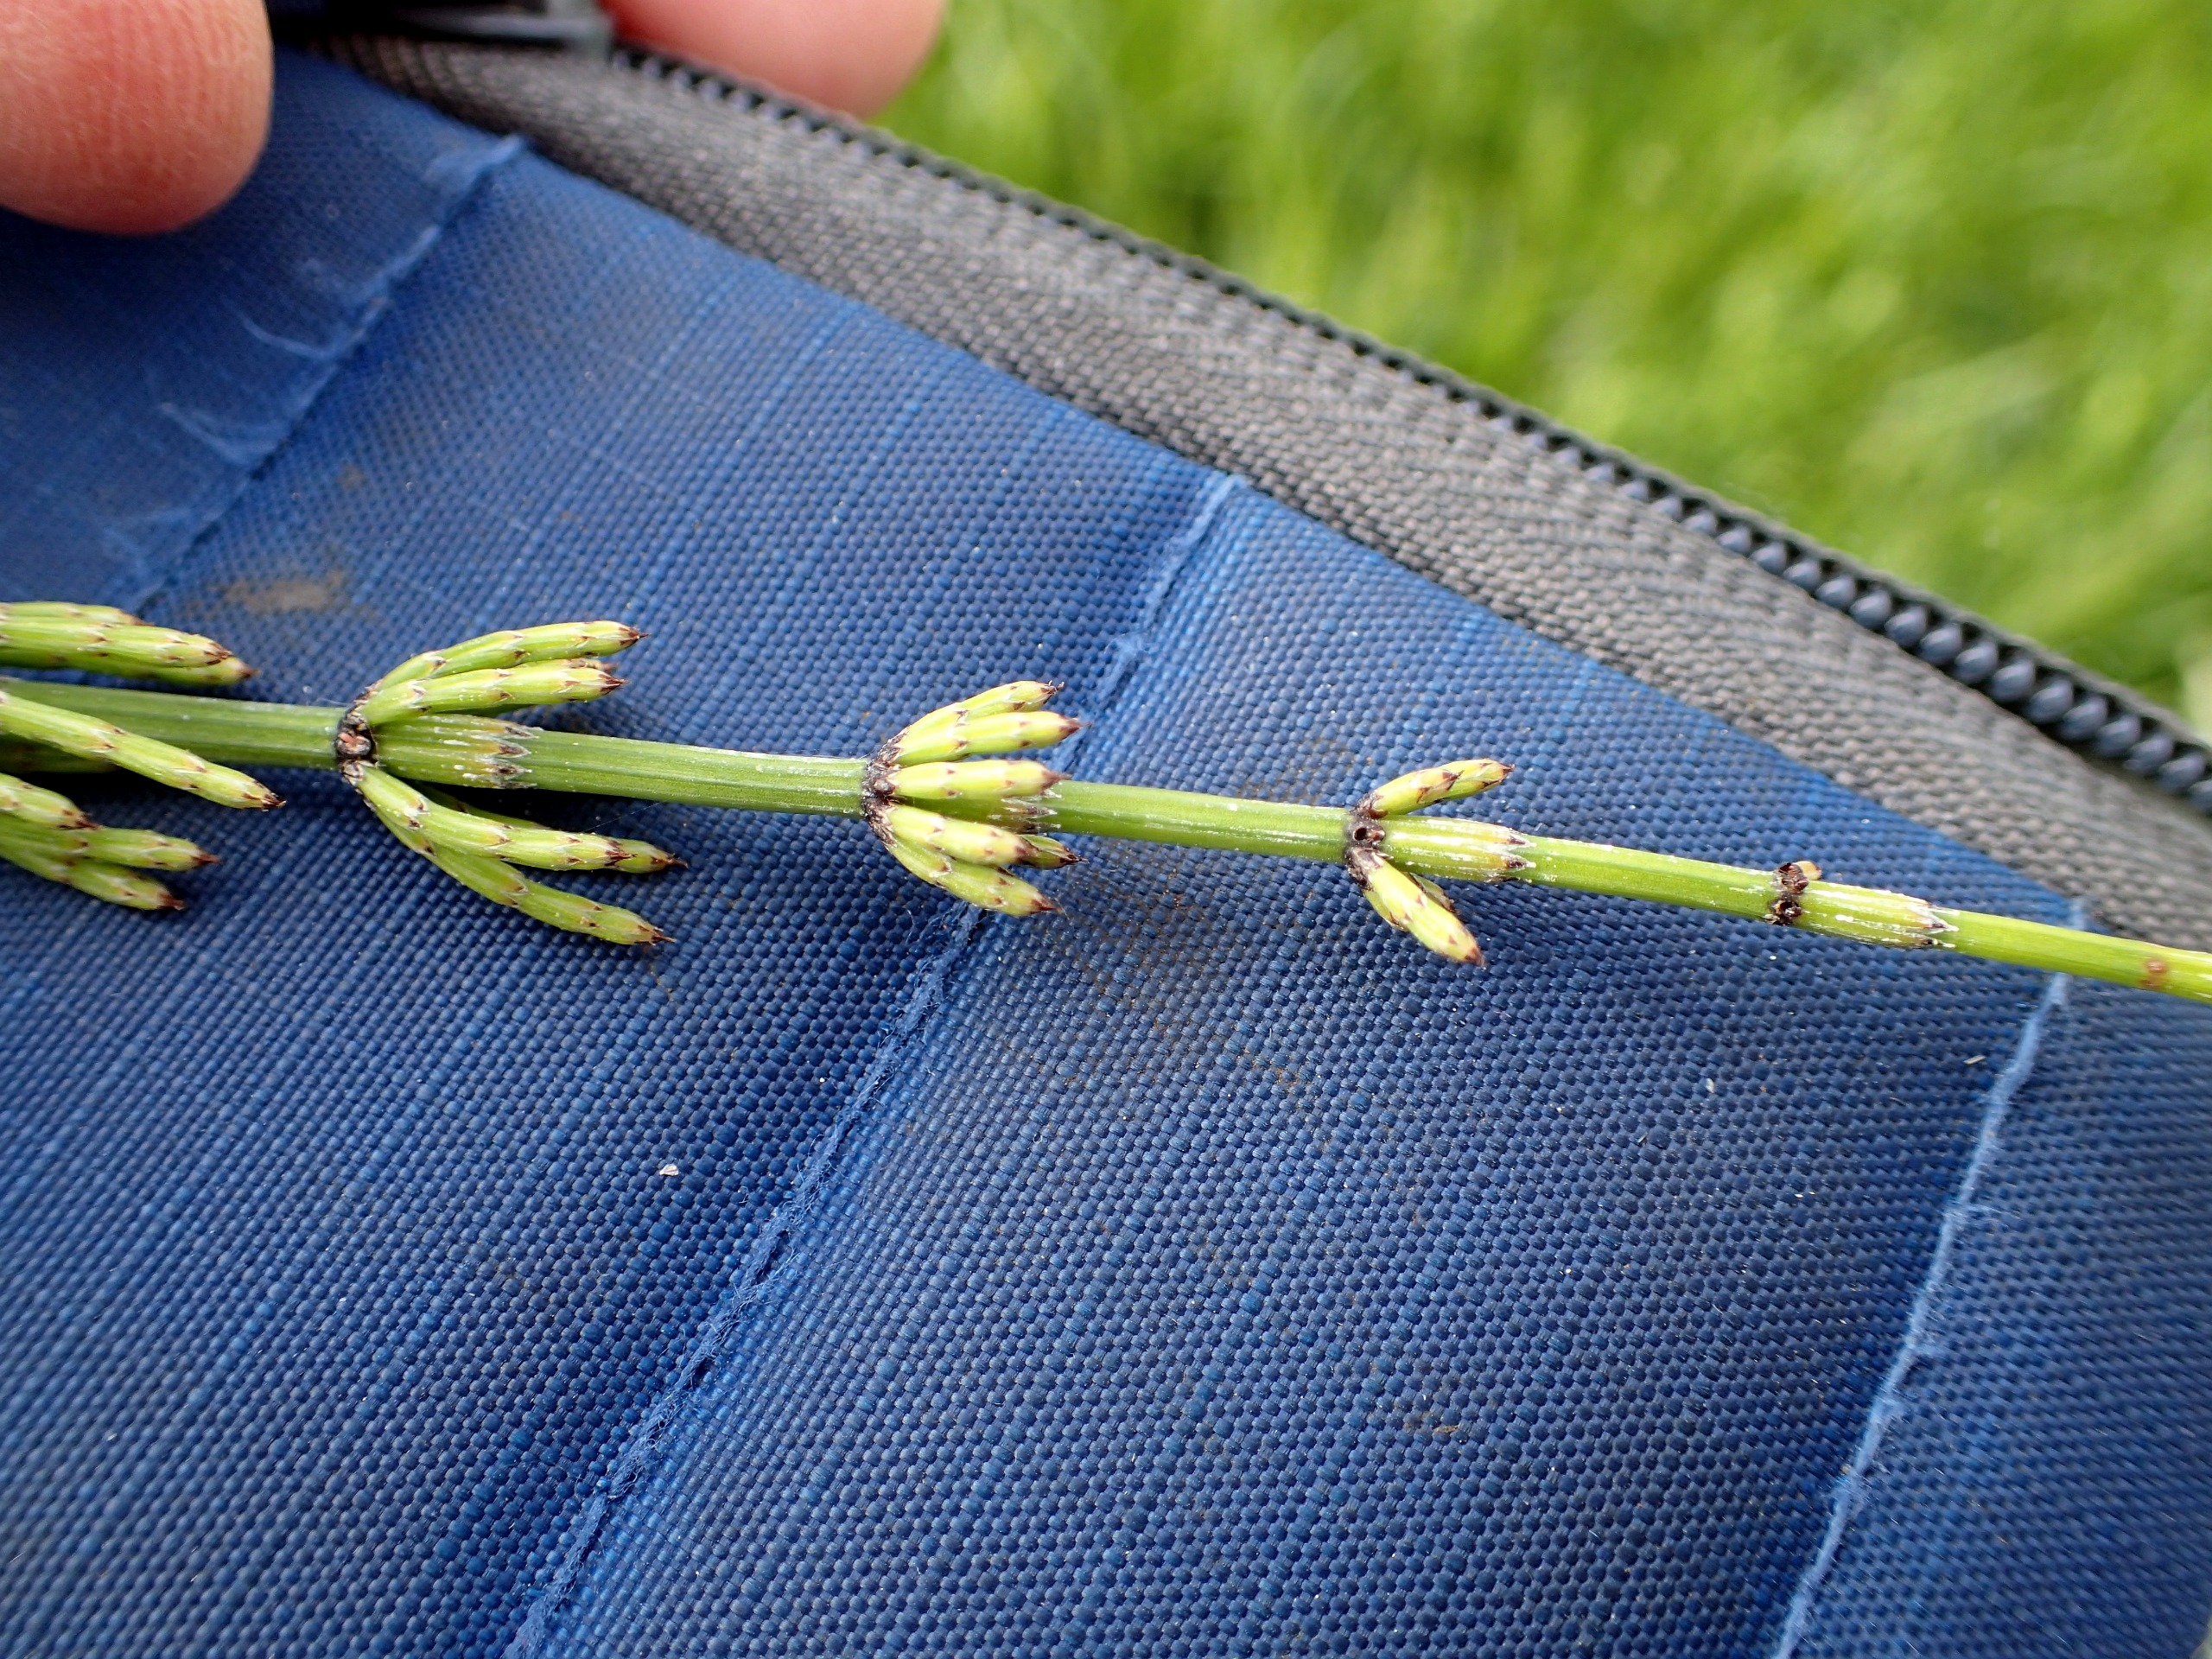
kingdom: Plantae
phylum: Tracheophyta
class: Polypodiopsida
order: Equisetales
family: Equisetaceae
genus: Equisetum
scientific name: Equisetum palustre
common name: Kær-padderok
